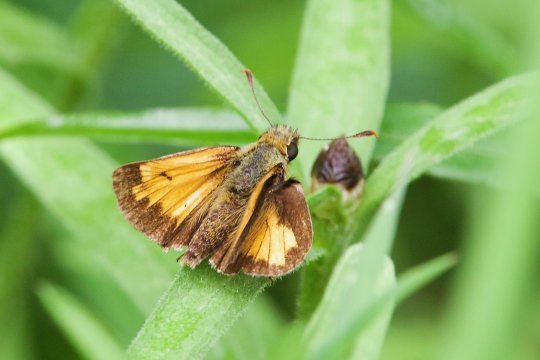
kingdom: Animalia
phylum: Arthropoda
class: Insecta
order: Lepidoptera
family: Hesperiidae
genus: Lon
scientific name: Lon hobomok
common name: Hobomok Skipper
